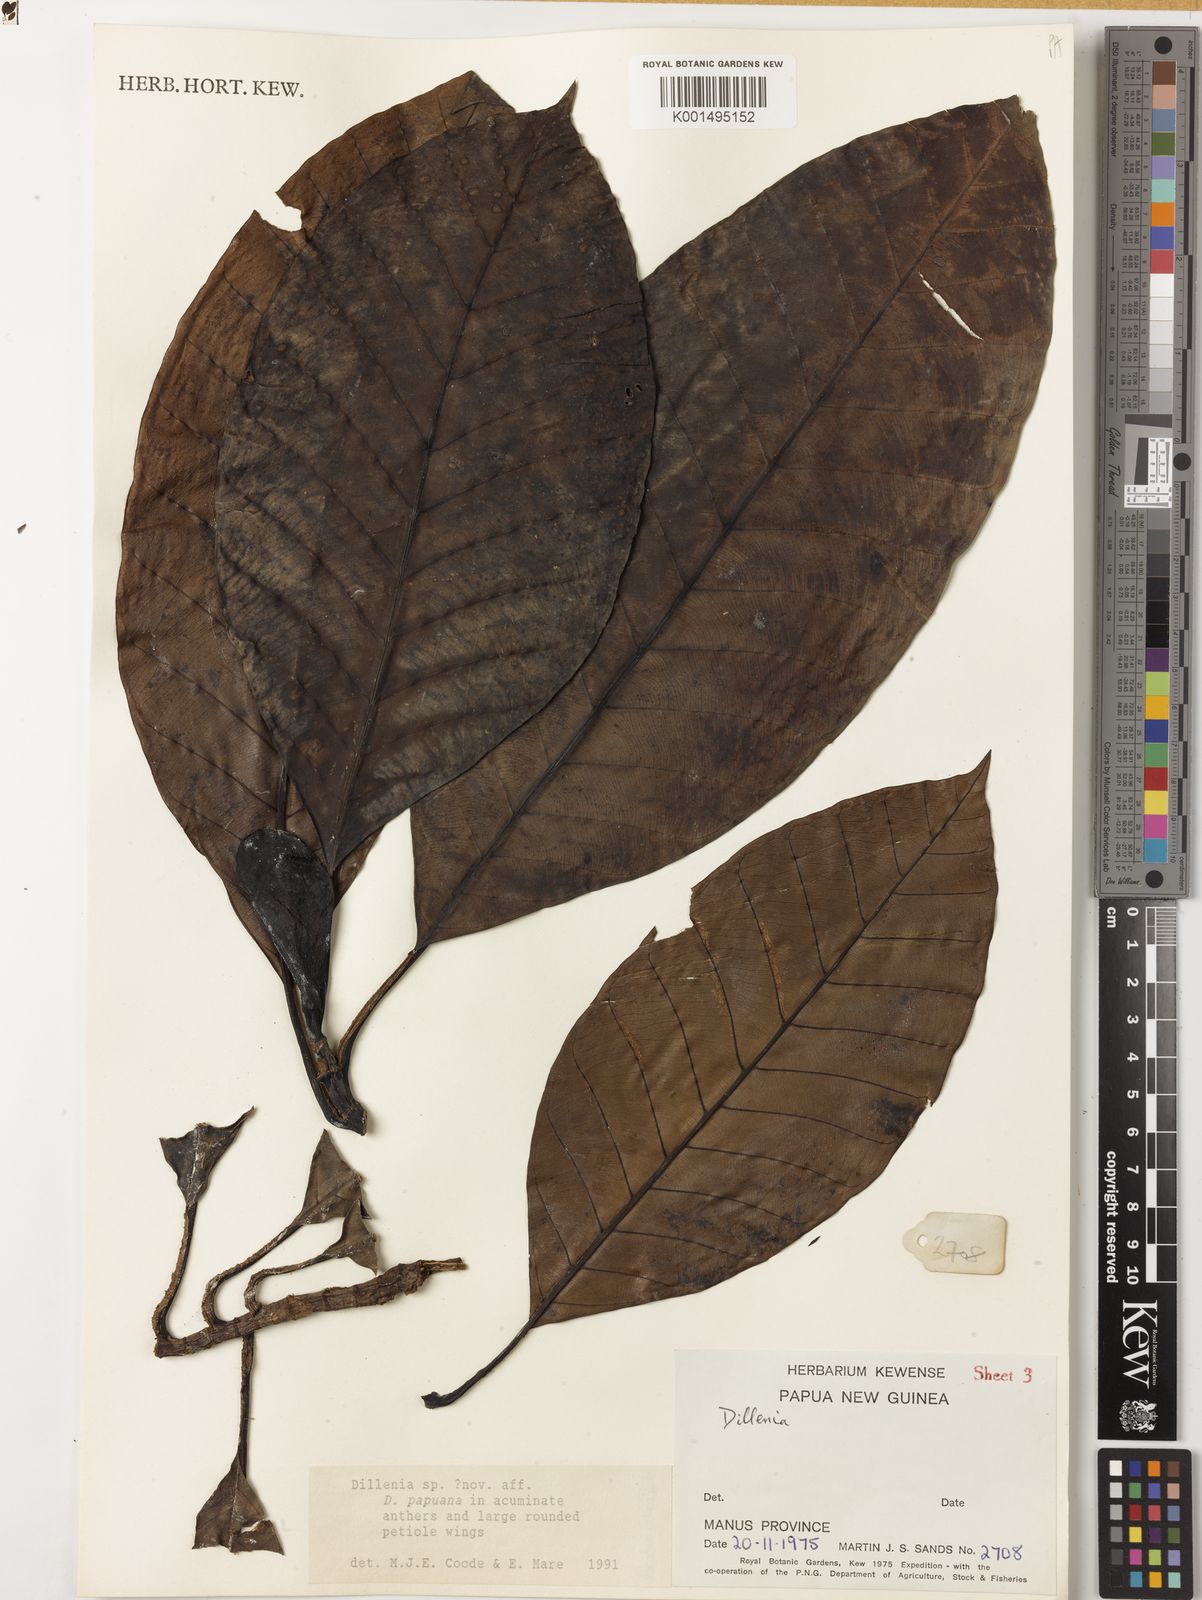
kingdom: Plantae
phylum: Tracheophyta
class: Magnoliopsida
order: Dilleniales
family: Dilleniaceae
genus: Dillenia
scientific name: Dillenia
